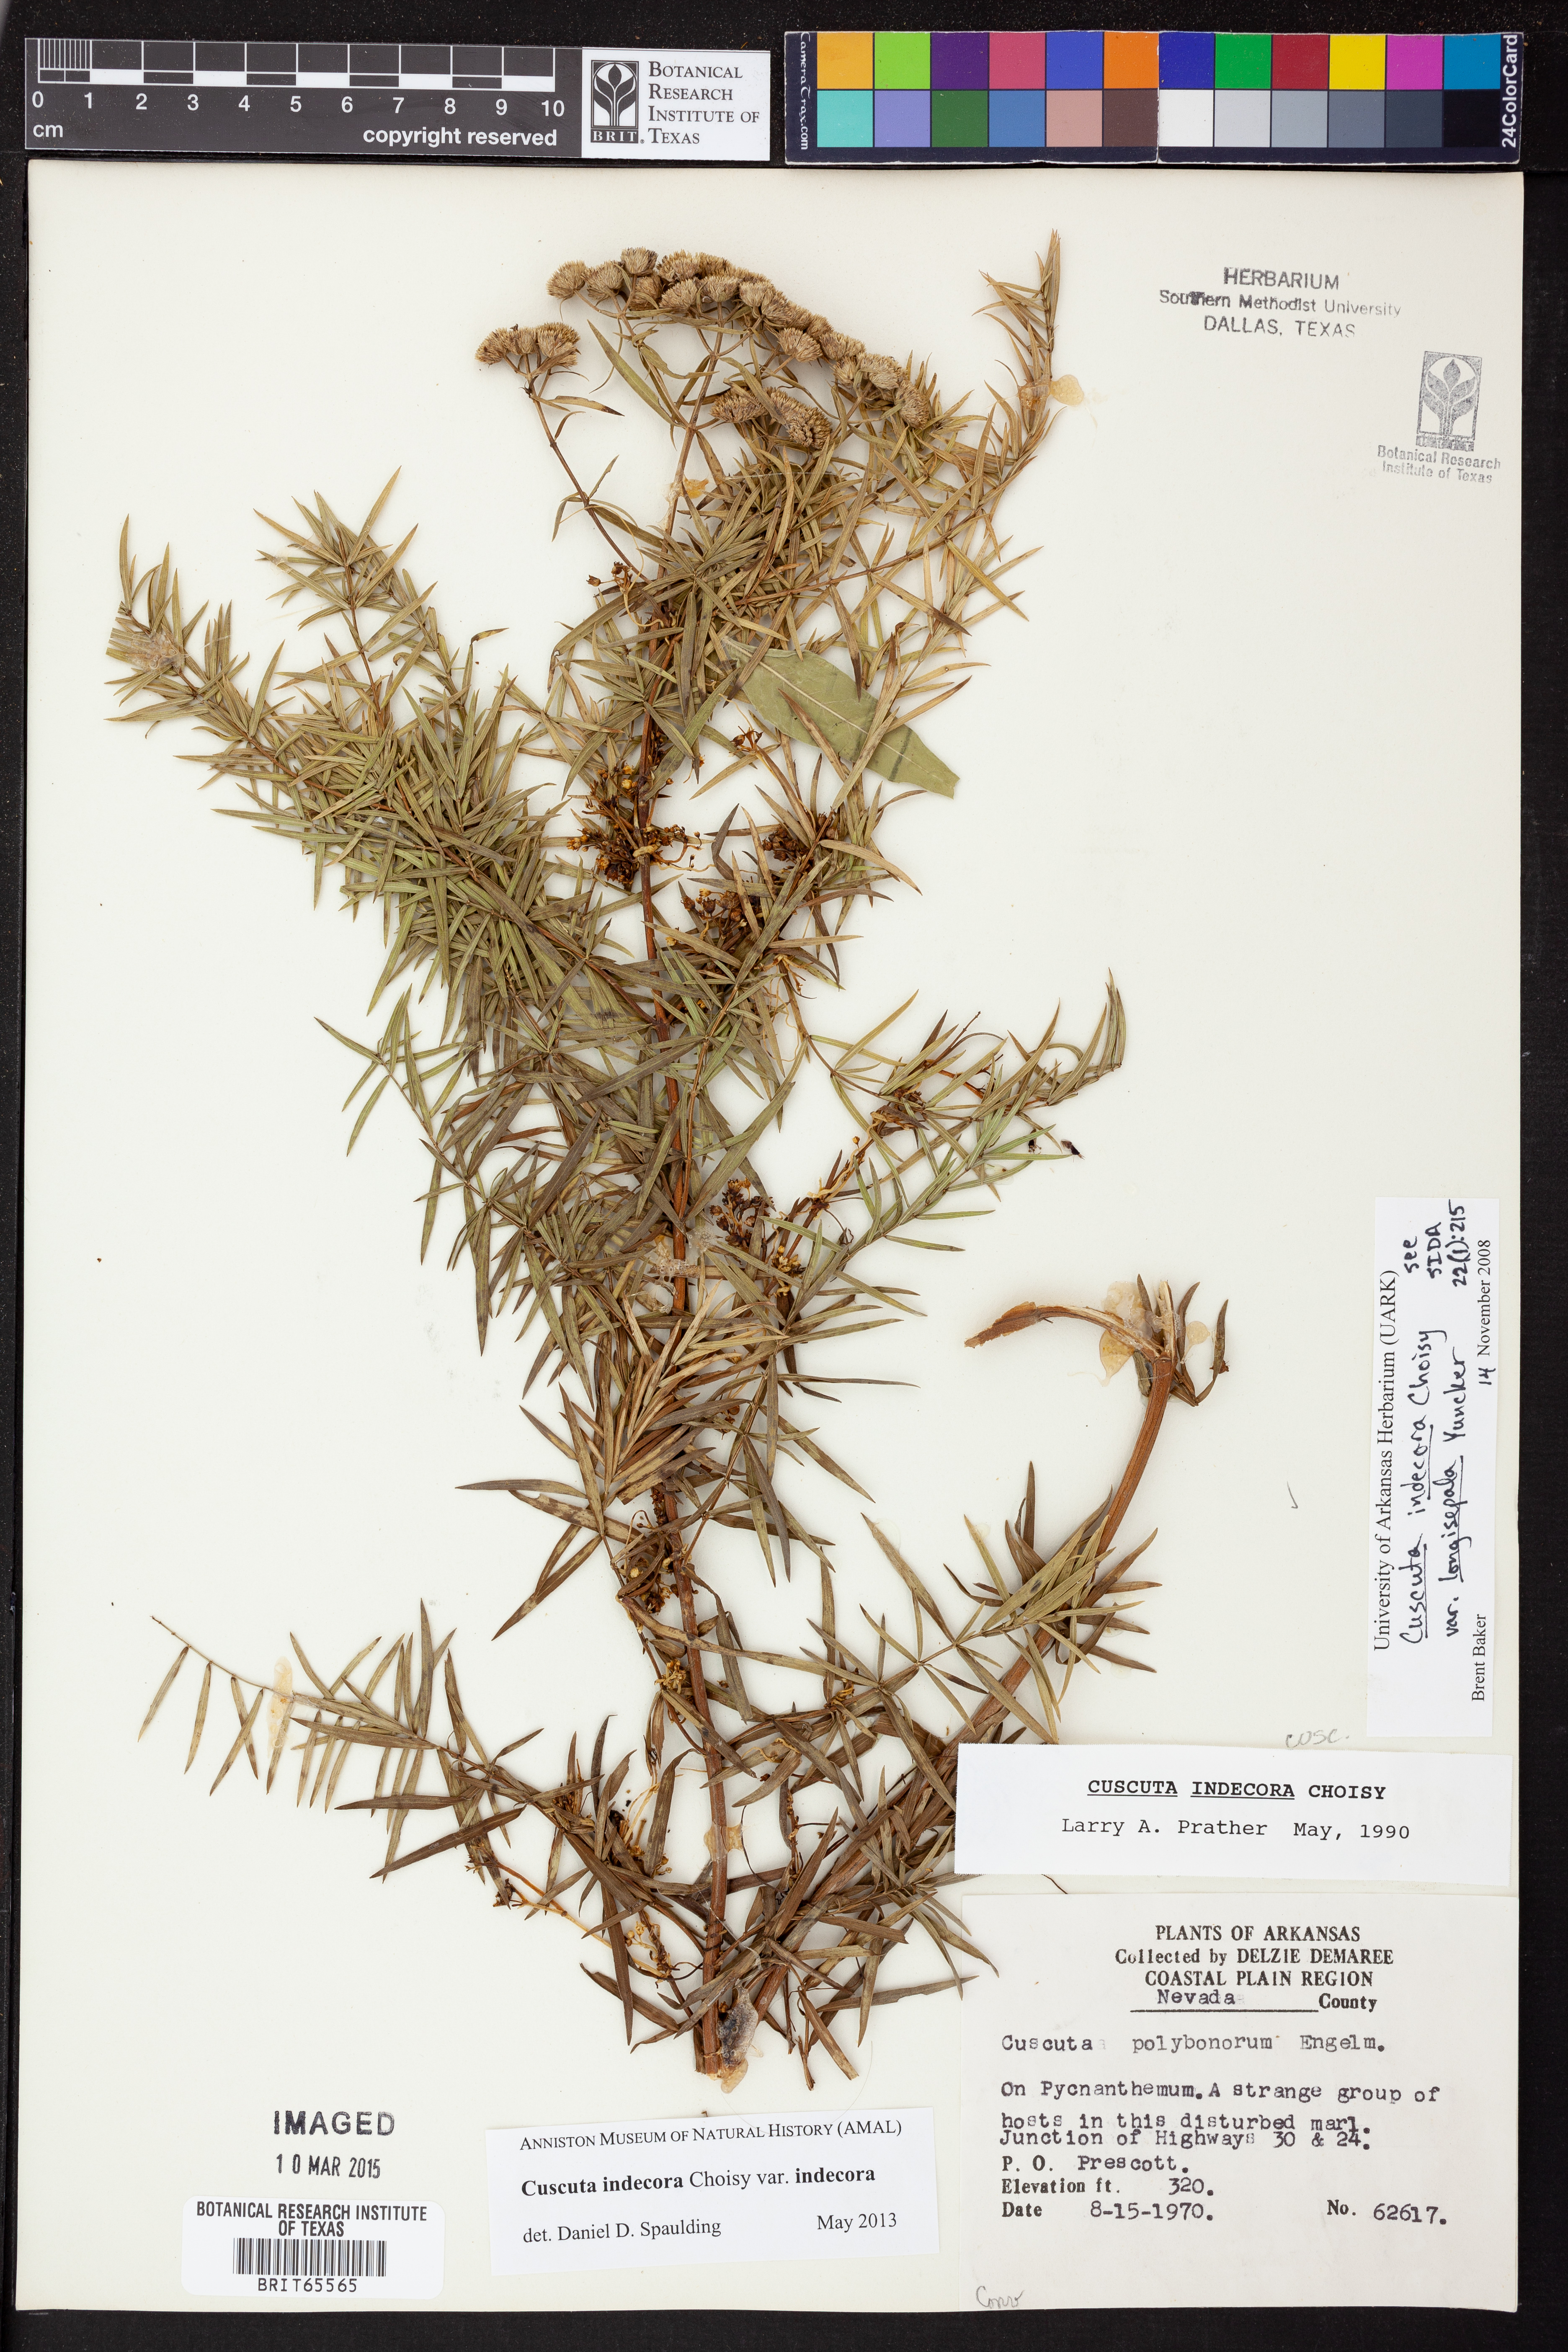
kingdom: Plantae
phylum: Tracheophyta
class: Magnoliopsida
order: Solanales
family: Convolvulaceae
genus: Cuscuta
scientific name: Cuscuta indecora
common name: Large-seed dodder
